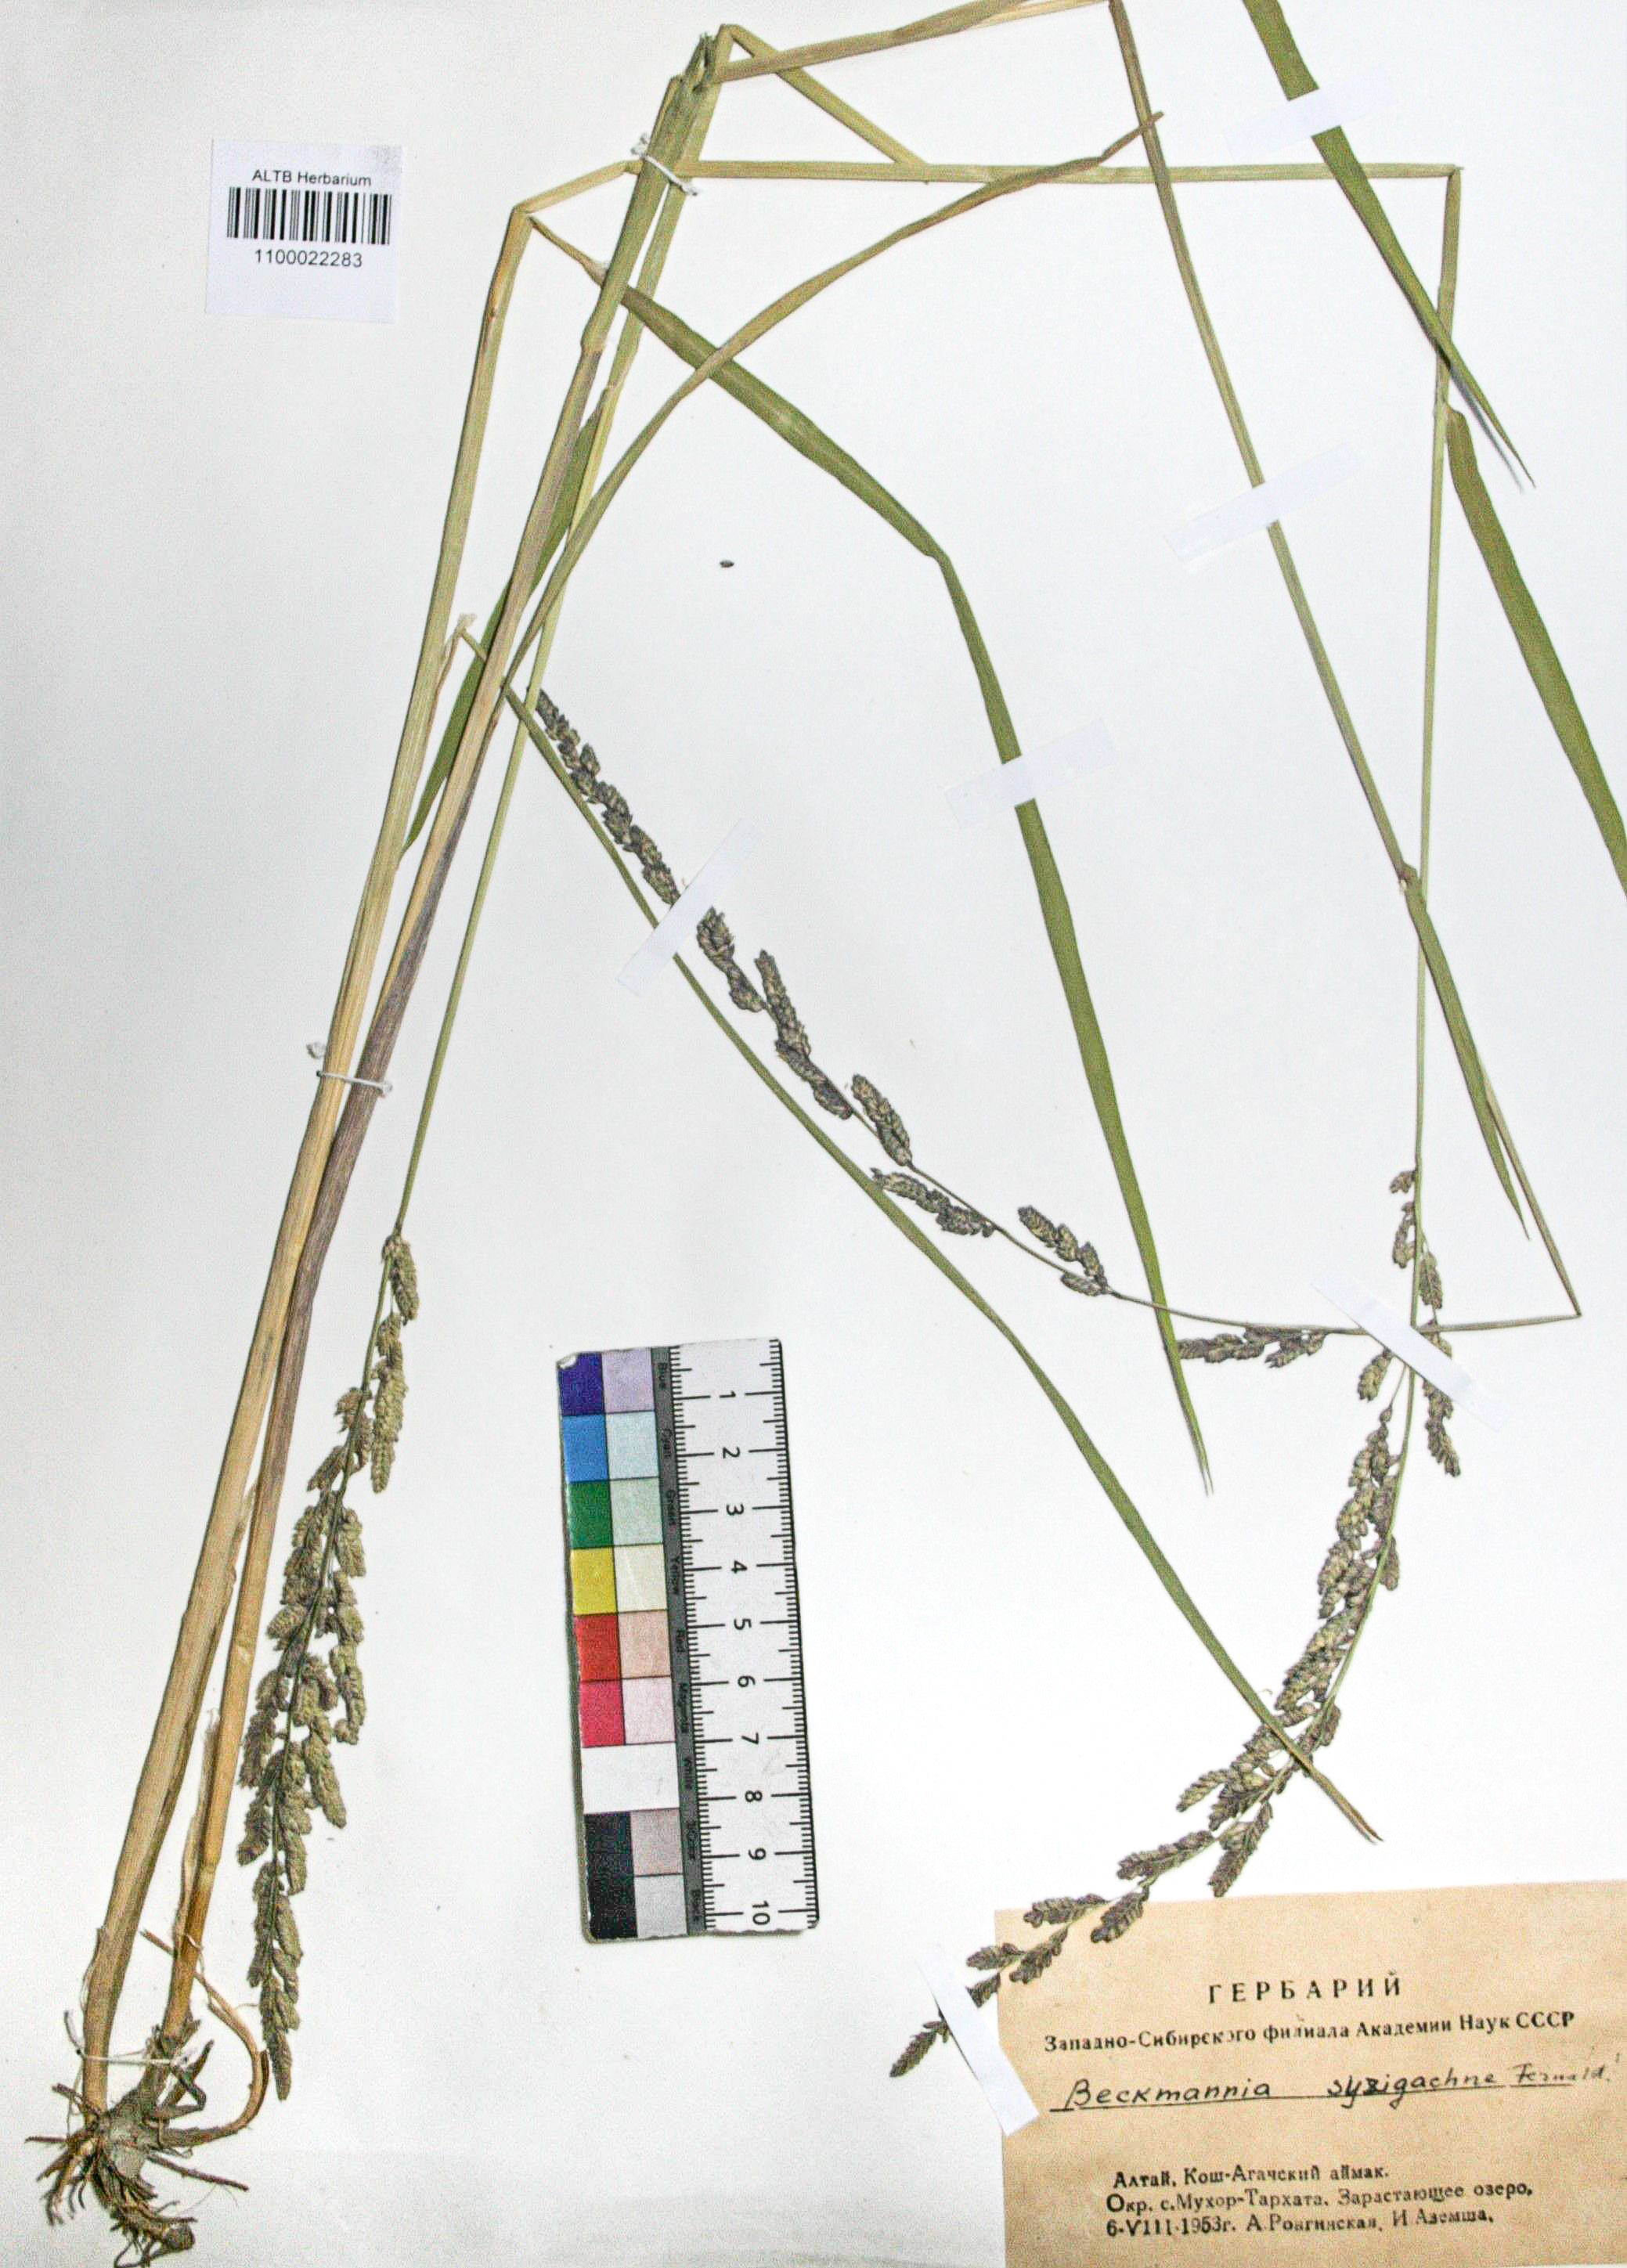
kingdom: Plantae
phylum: Tracheophyta
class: Liliopsida
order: Poales
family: Poaceae
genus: Beckmannia
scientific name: Beckmannia syzigachne
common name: American slough-grass
